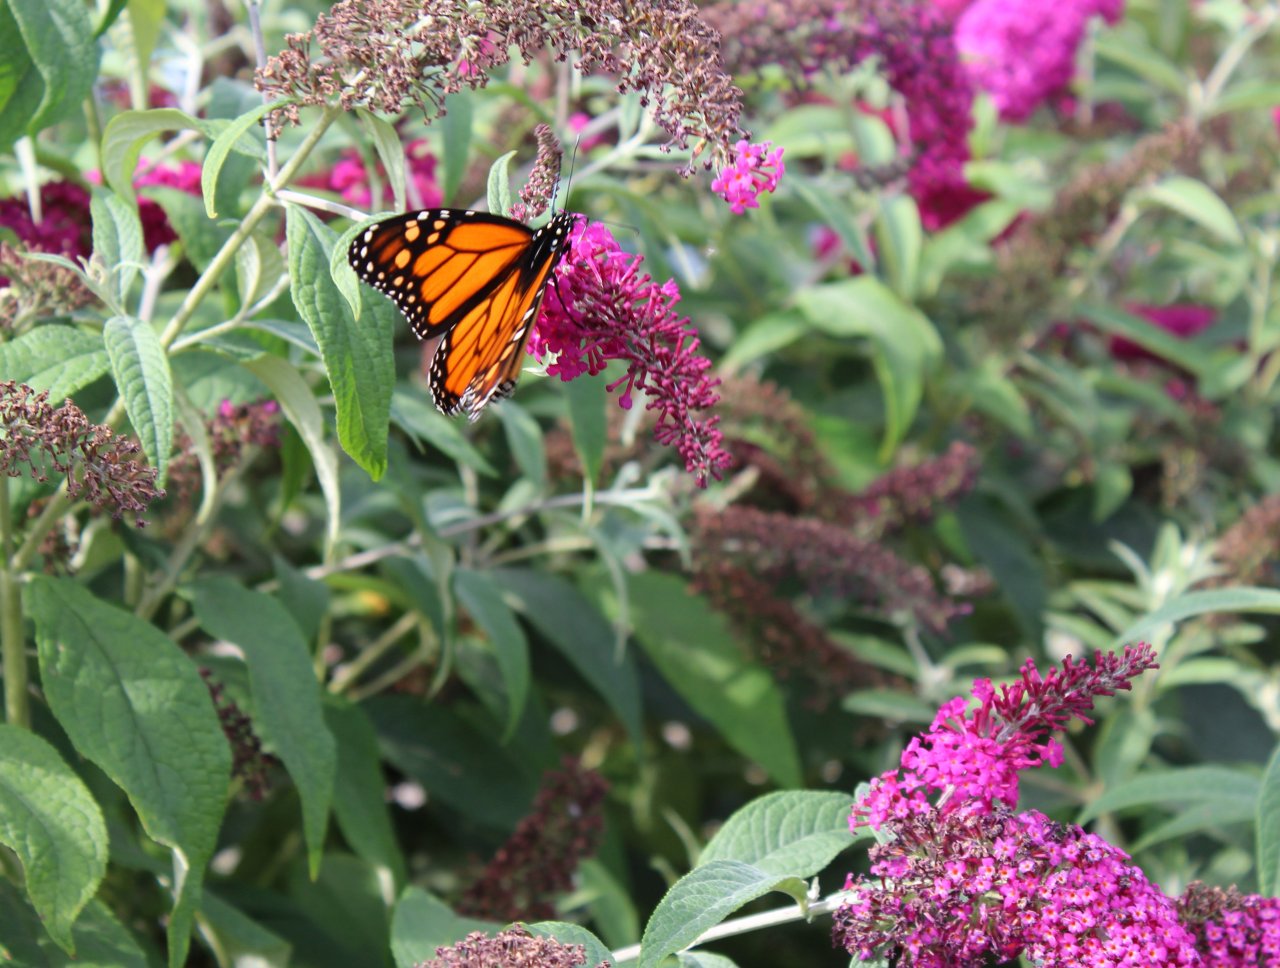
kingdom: Animalia
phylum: Arthropoda
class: Insecta
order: Lepidoptera
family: Nymphalidae
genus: Danaus
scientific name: Danaus plexippus
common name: Monarch
